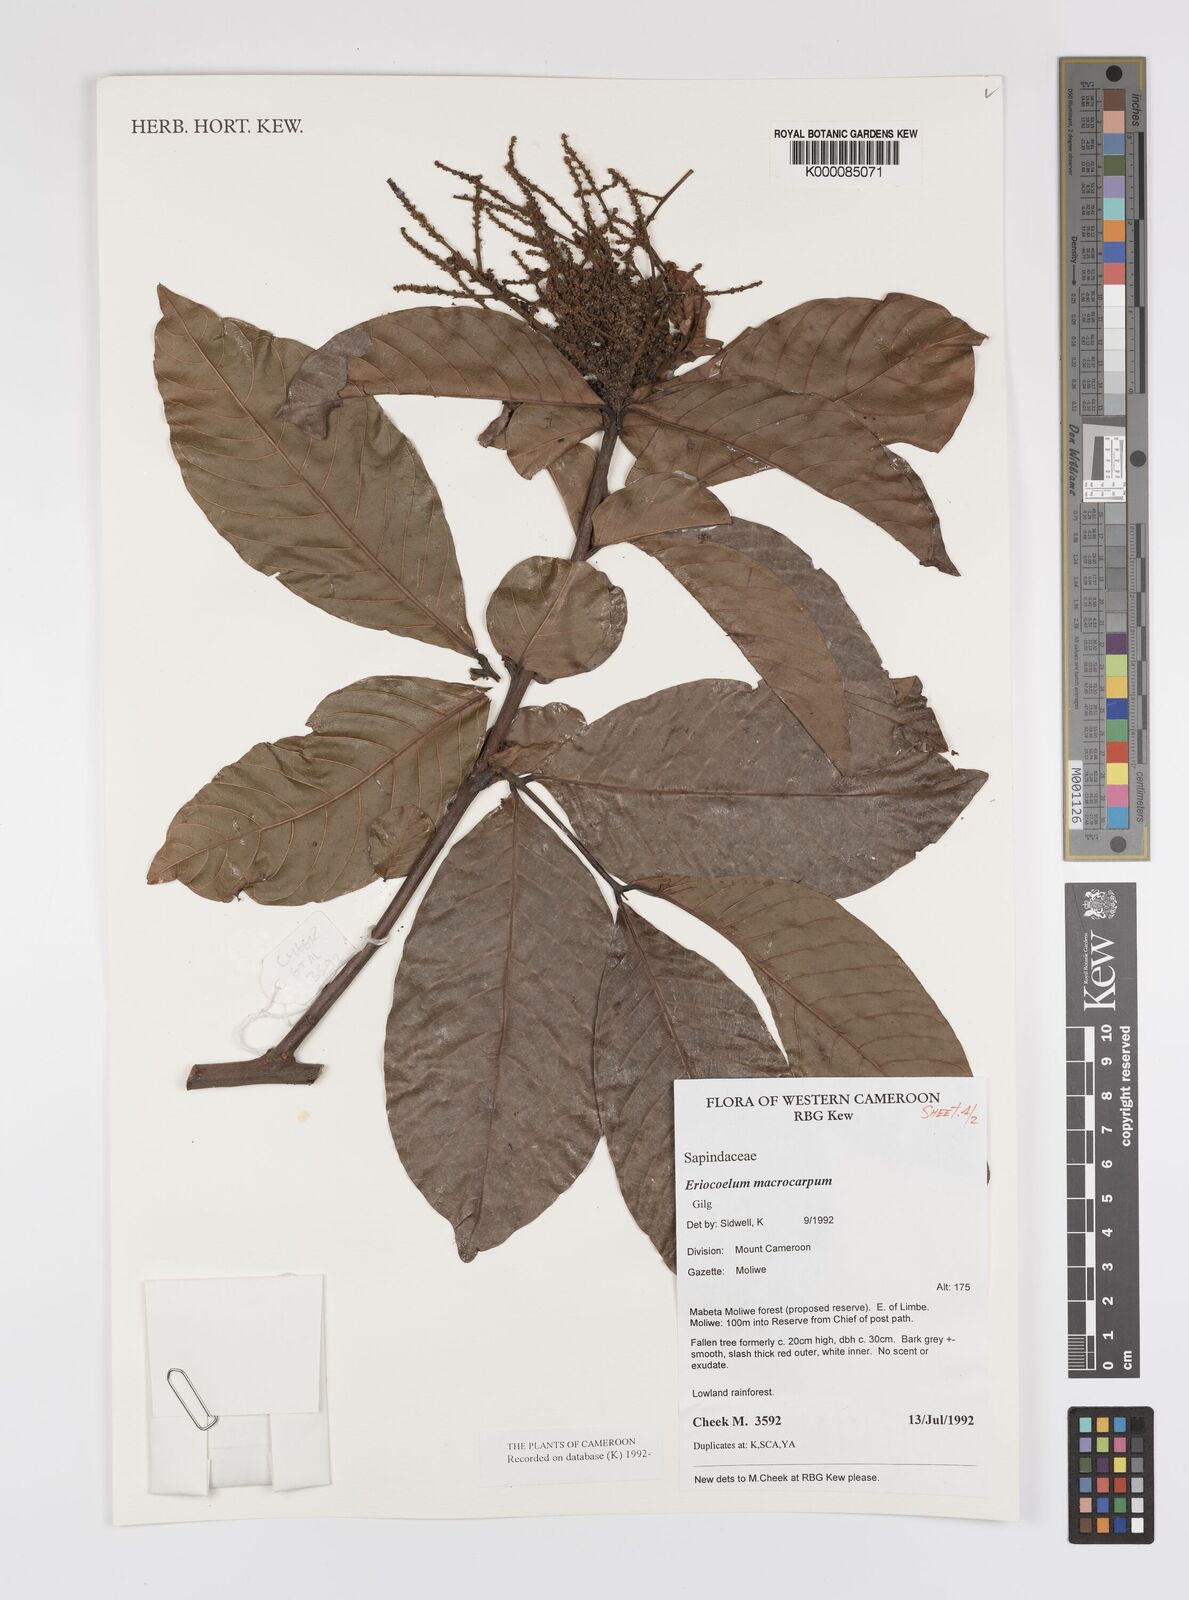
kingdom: Plantae
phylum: Tracheophyta
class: Magnoliopsida
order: Sapindales
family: Sapindaceae
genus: Eriocoelum
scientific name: Eriocoelum
